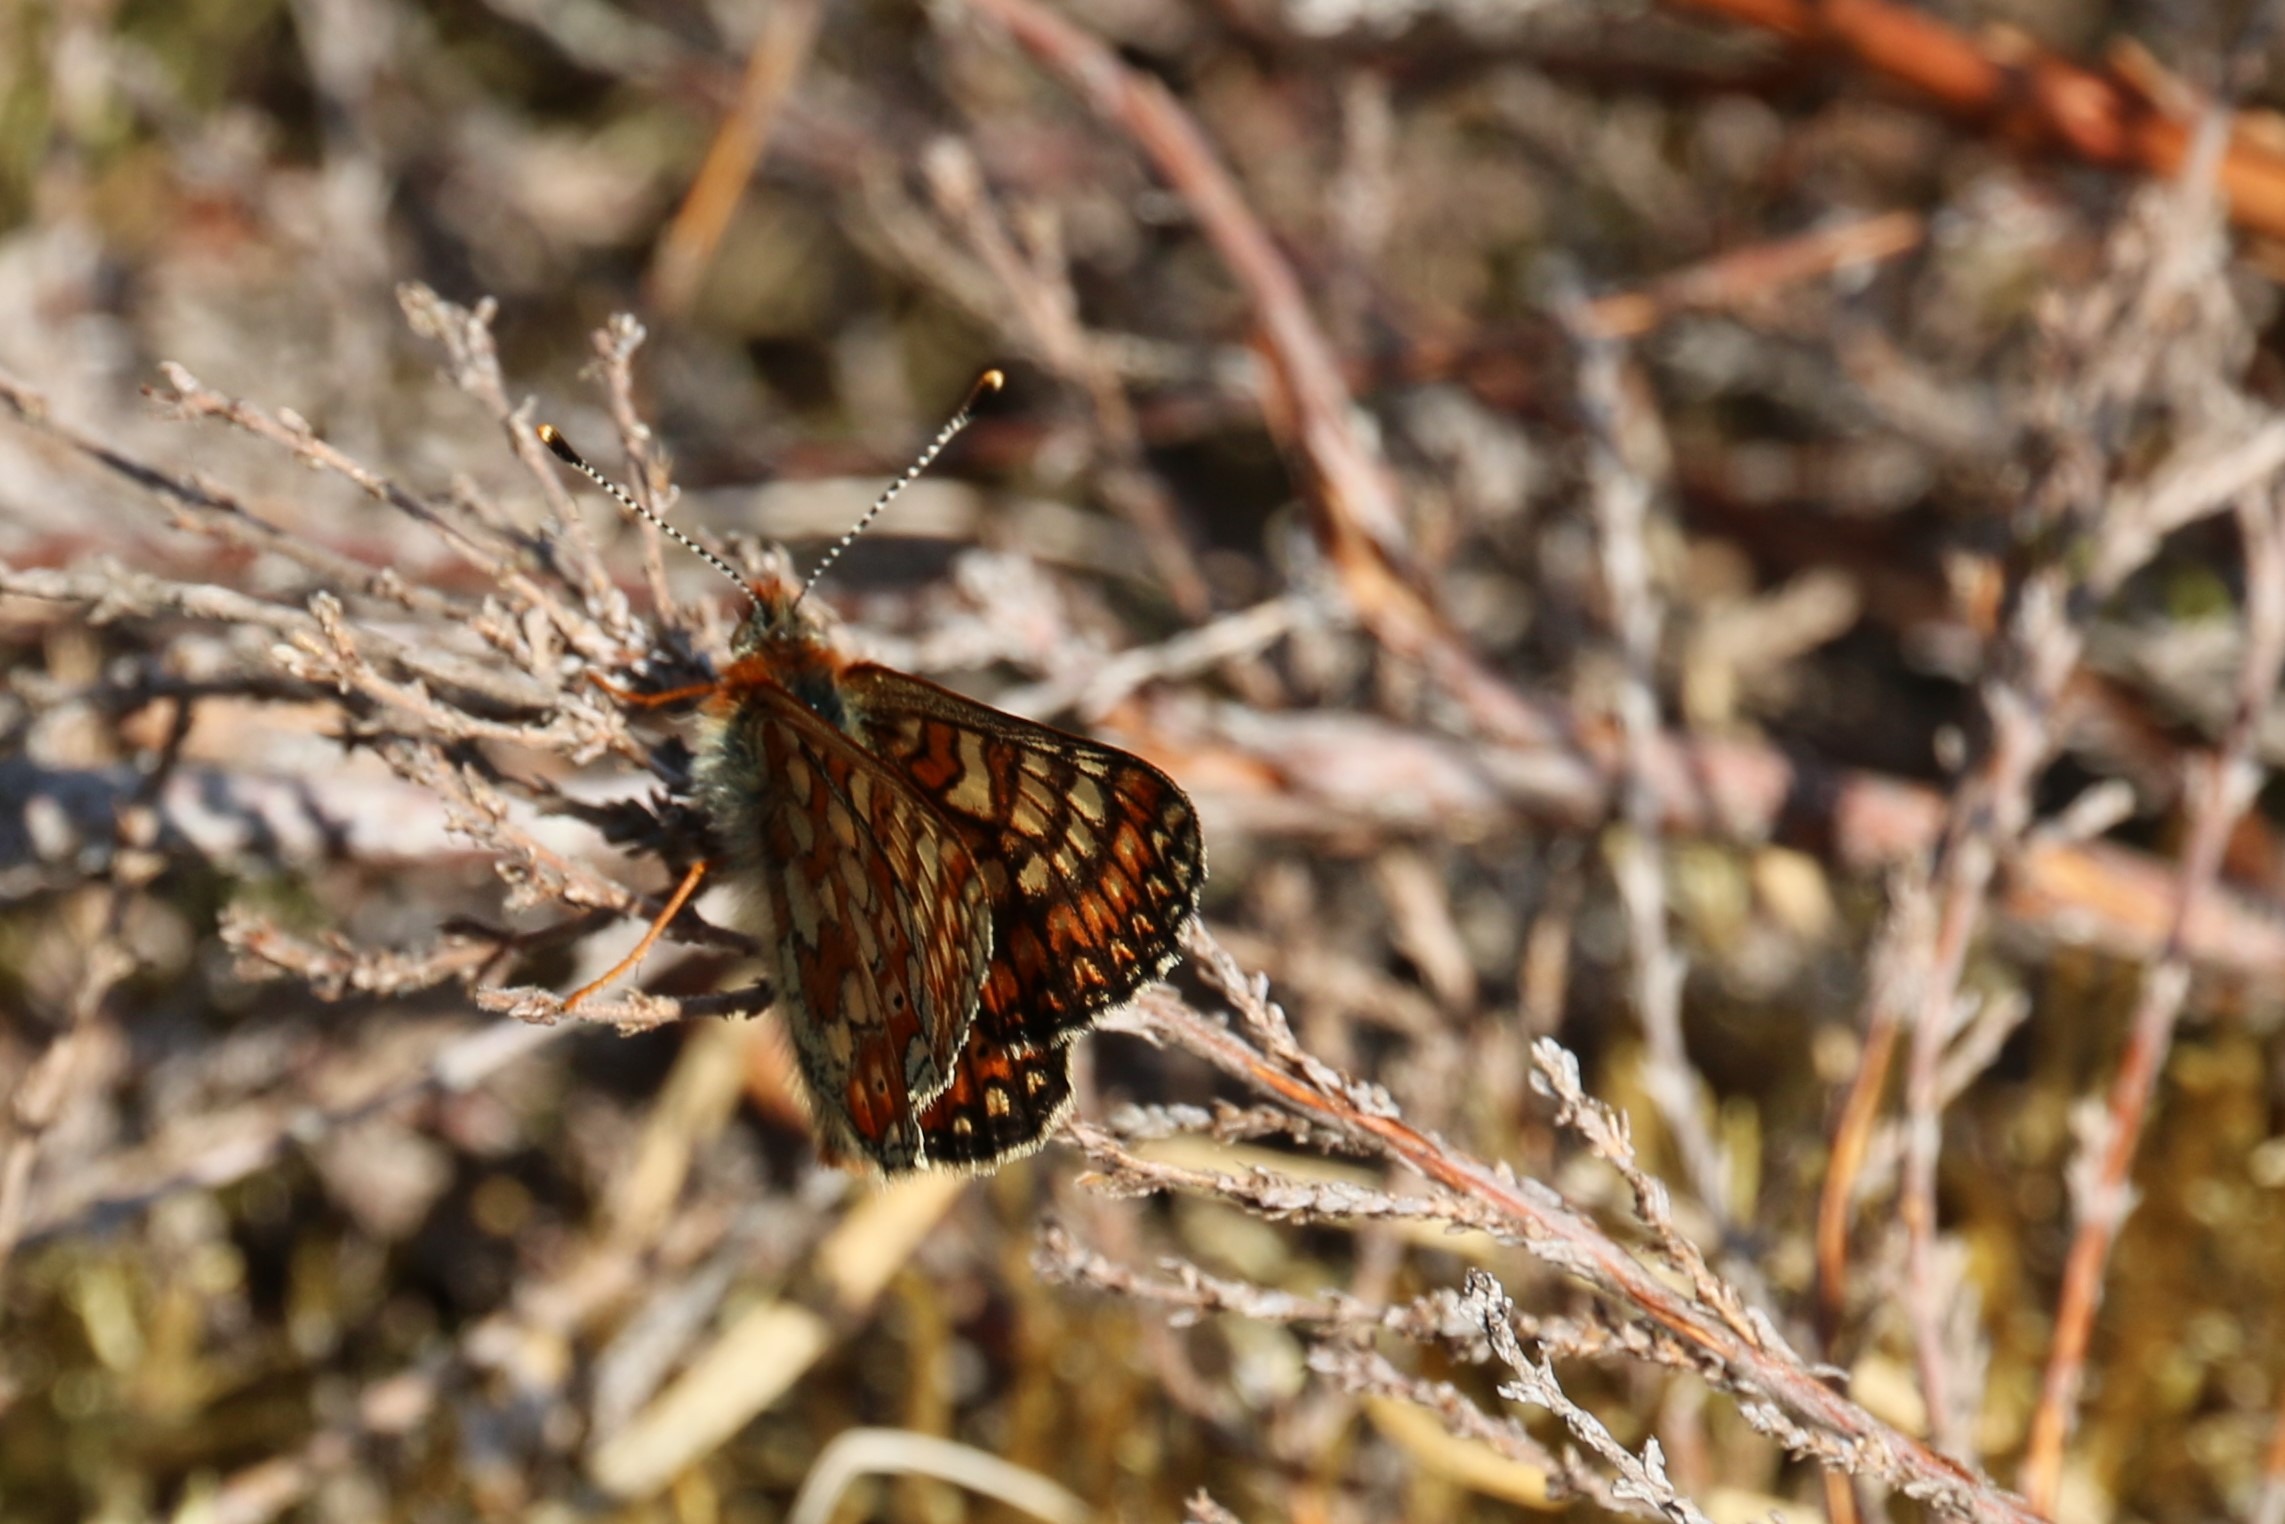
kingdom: Animalia
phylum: Arthropoda
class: Insecta
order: Lepidoptera
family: Nymphalidae
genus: Euphydryas
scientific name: Euphydryas aurinia
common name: Hedepletvinge
